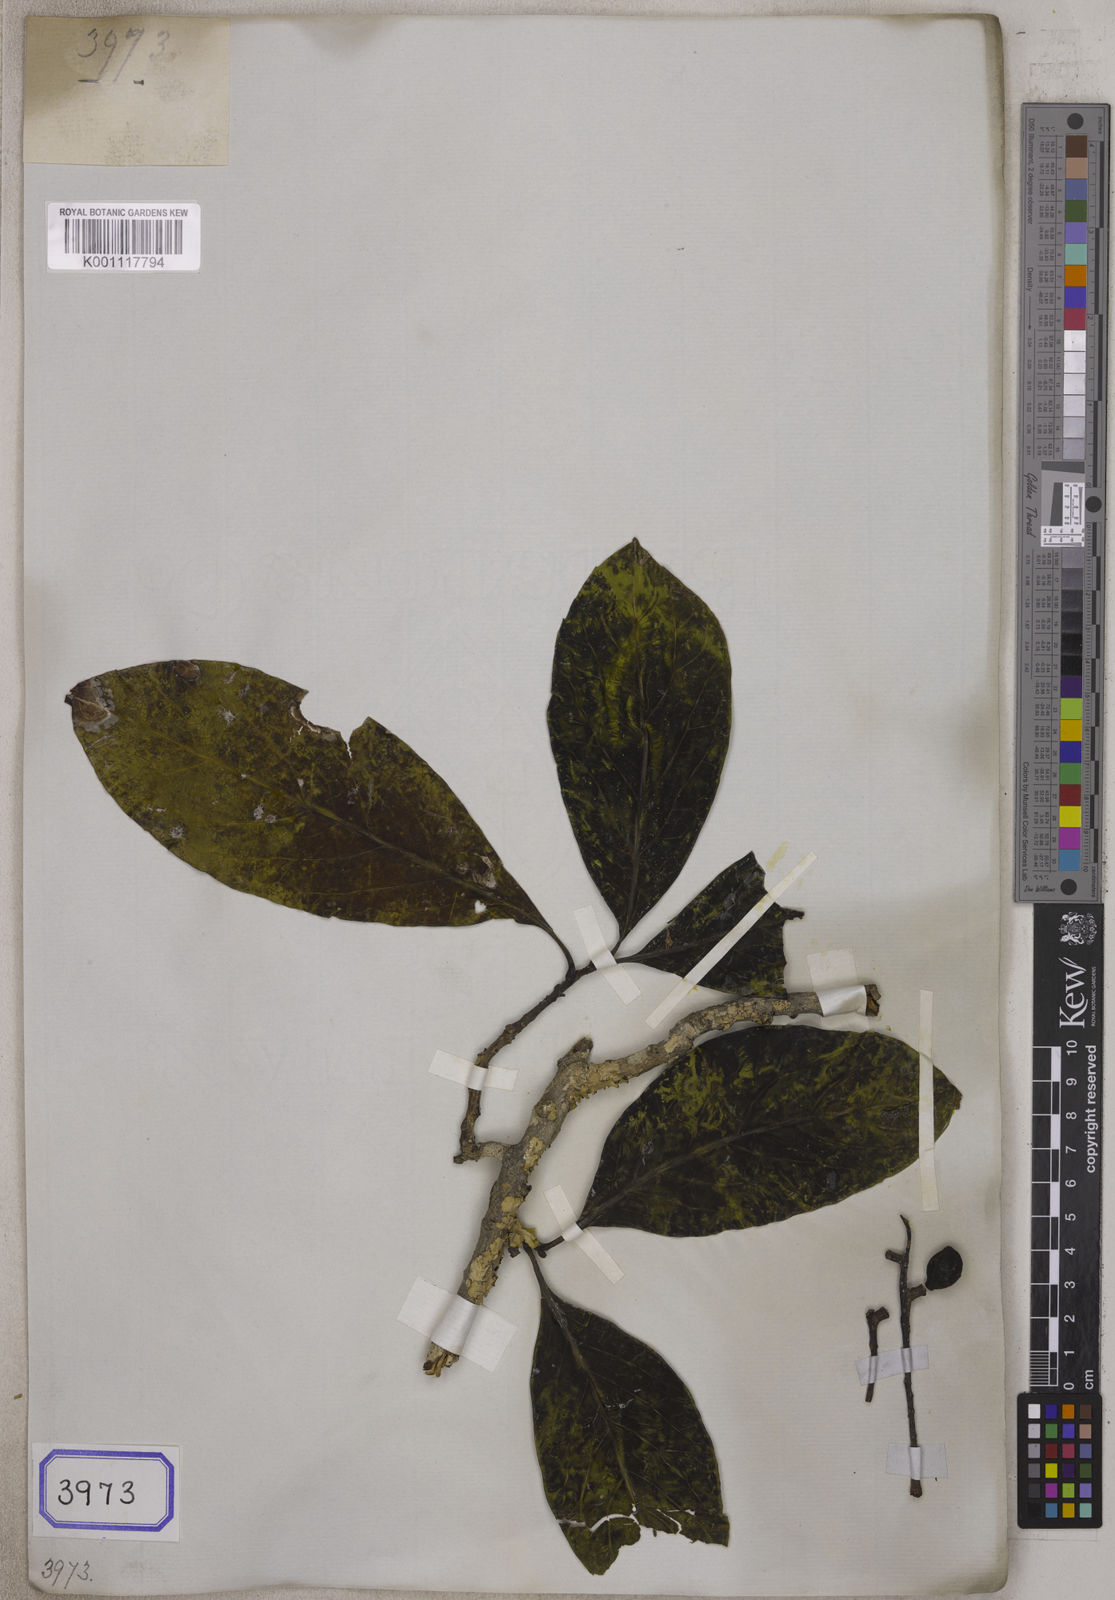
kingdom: Plantae
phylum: Tracheophyta
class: Magnoliopsida
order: Myrtales
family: Combretaceae
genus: Terminalia
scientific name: Terminalia venosa
